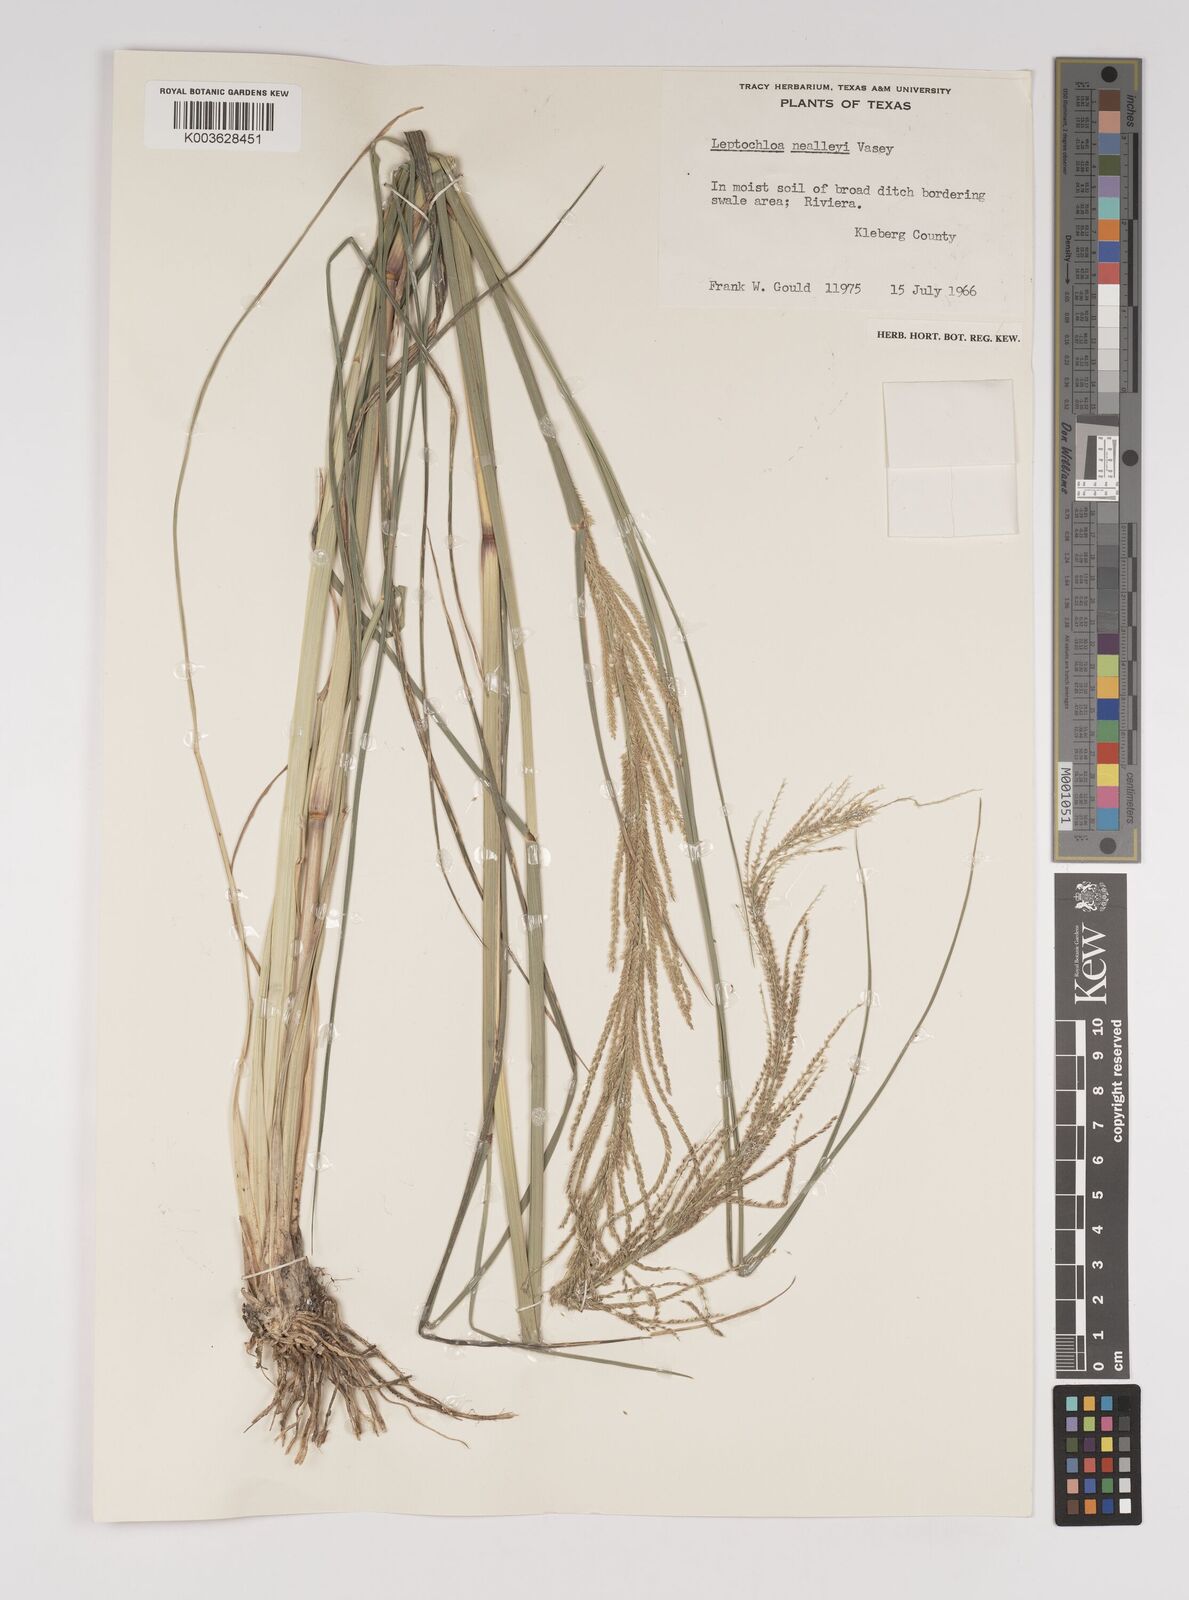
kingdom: Plantae
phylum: Tracheophyta
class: Liliopsida
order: Poales
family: Poaceae
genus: Leptochloa
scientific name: Leptochloa mucronata
